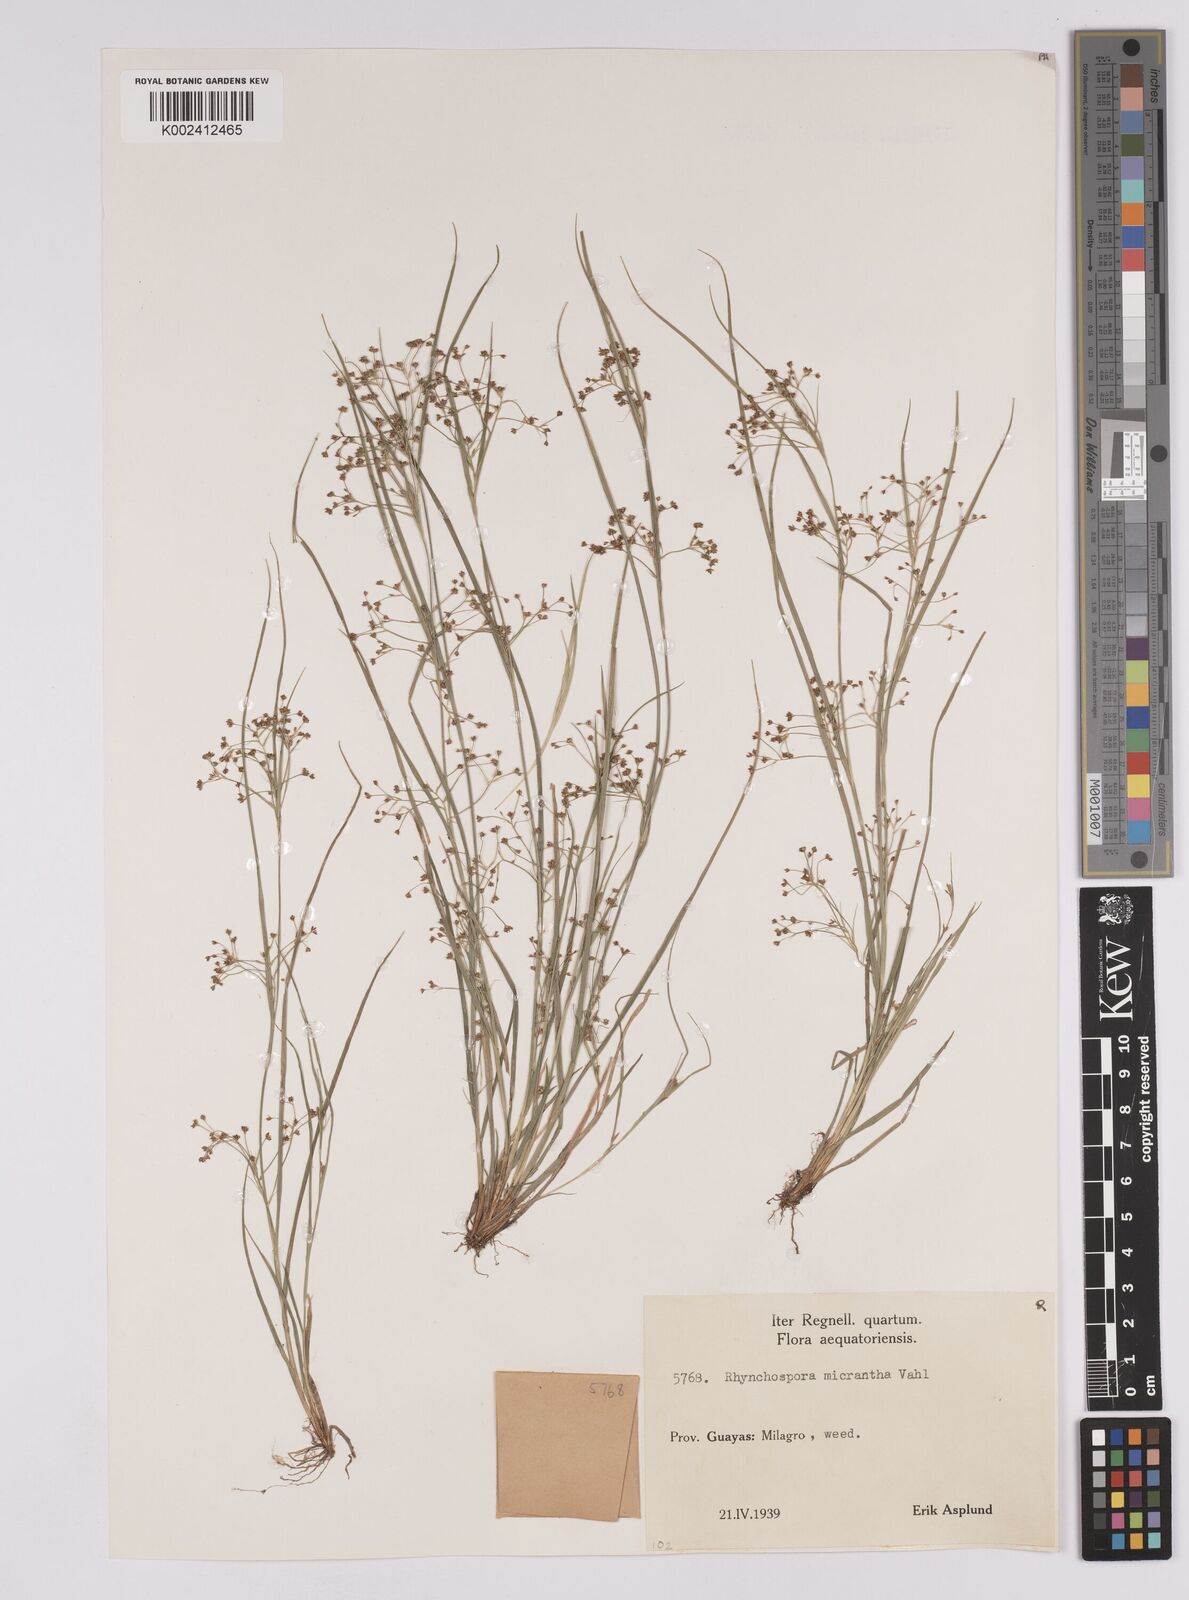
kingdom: Plantae
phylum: Tracheophyta
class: Liliopsida
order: Poales
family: Cyperaceae
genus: Rhynchospora
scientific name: Rhynchospora contracta
